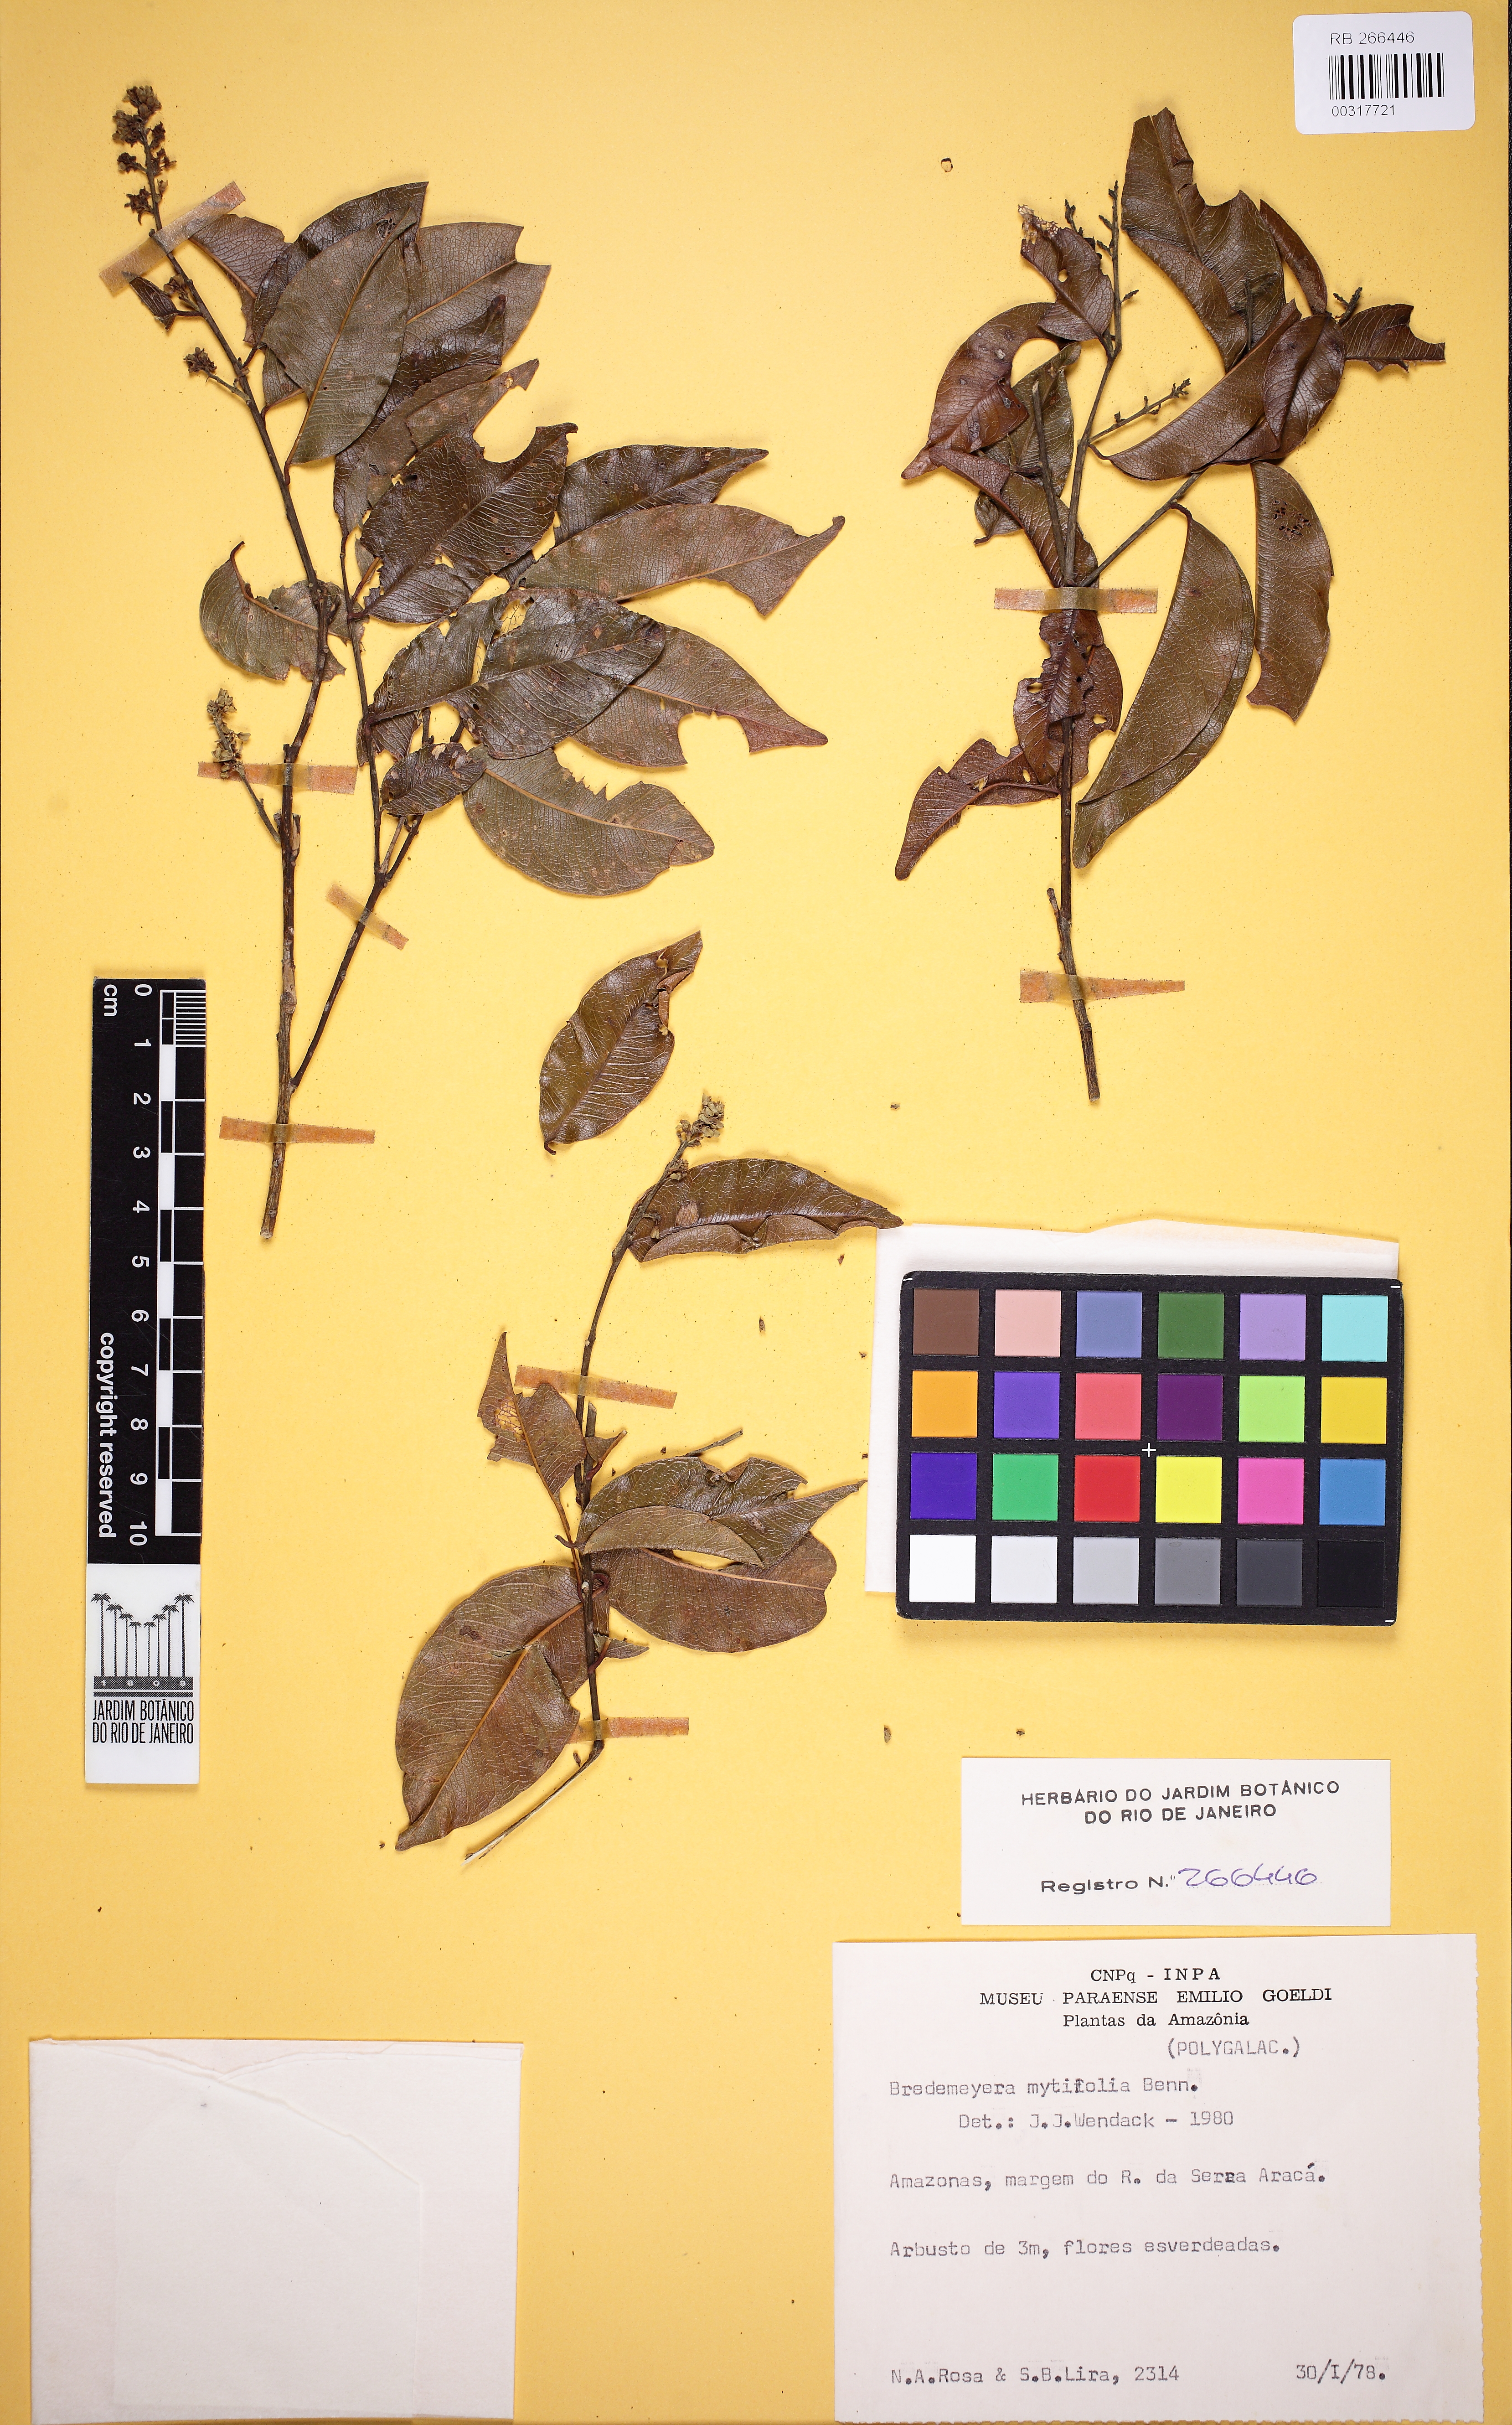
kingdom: Plantae
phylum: Tracheophyta
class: Magnoliopsida
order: Fabales
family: Polygalaceae
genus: Bredemeyera
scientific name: Bredemeyera myrtifolia
